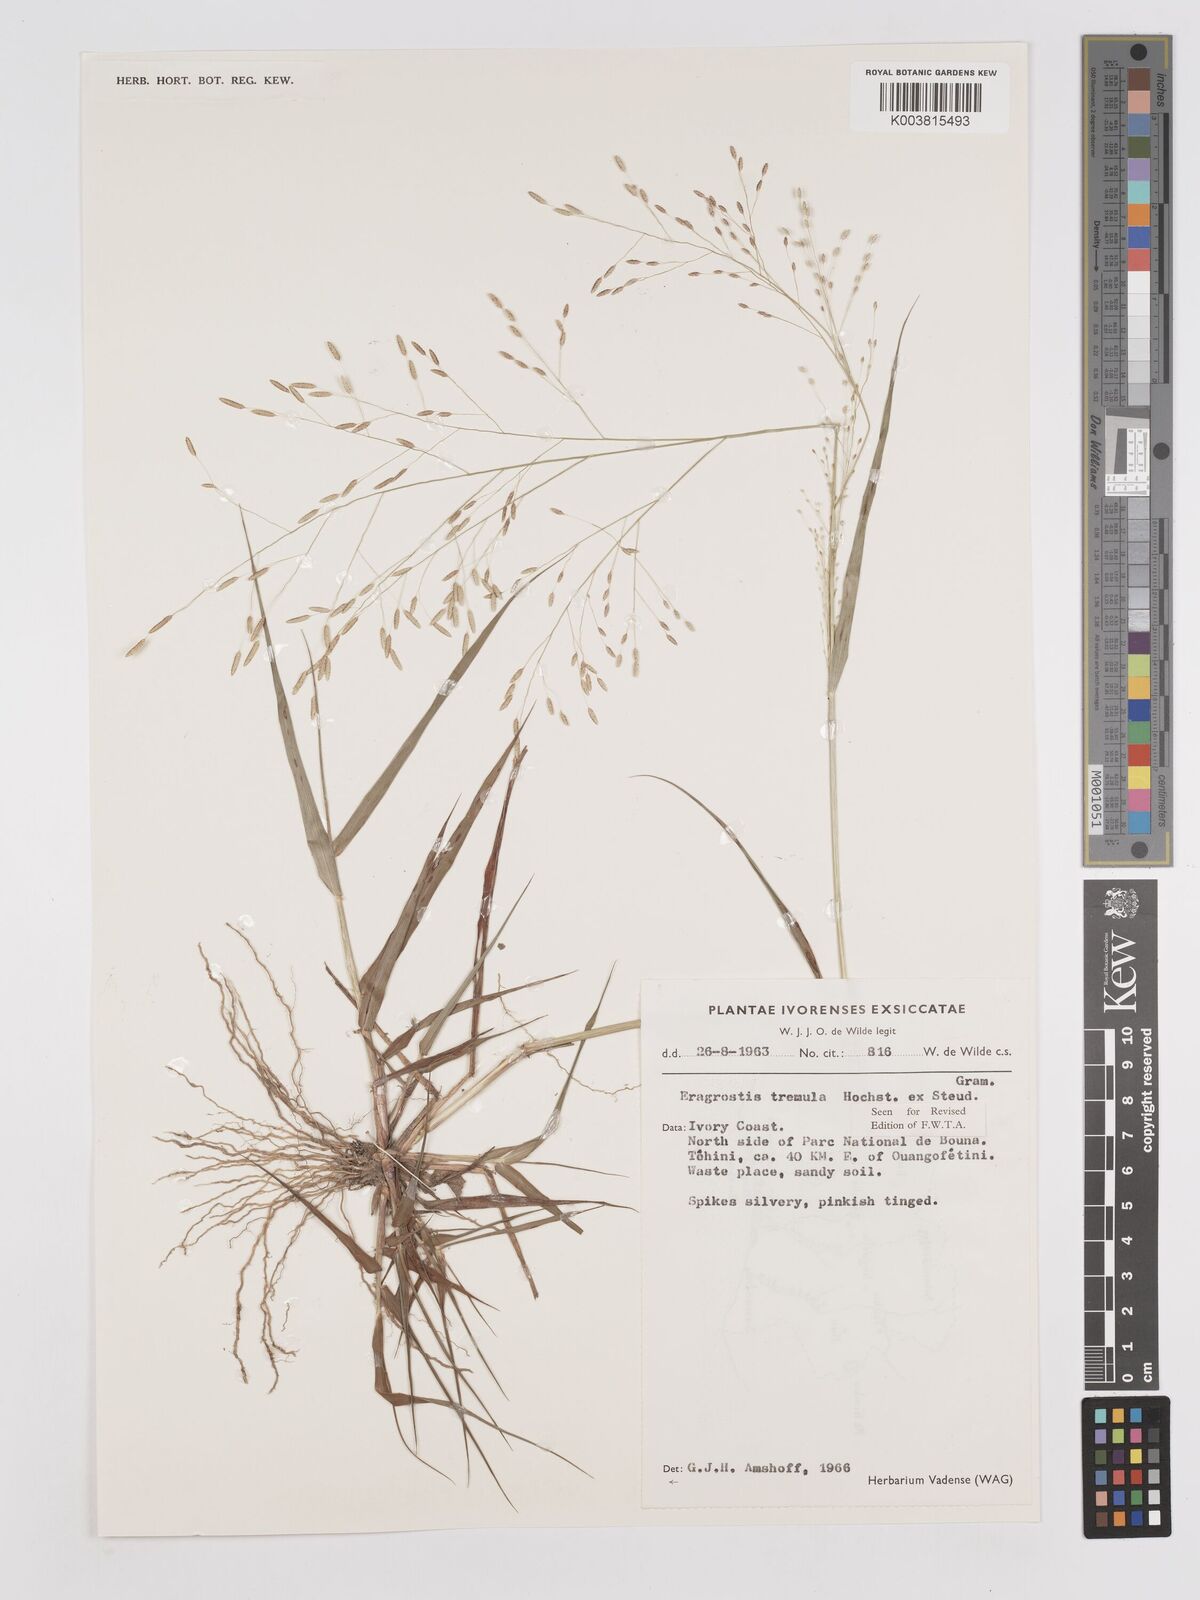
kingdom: Plantae
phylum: Tracheophyta
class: Liliopsida
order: Poales
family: Poaceae
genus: Eragrostis
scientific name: Eragrostis tremula
